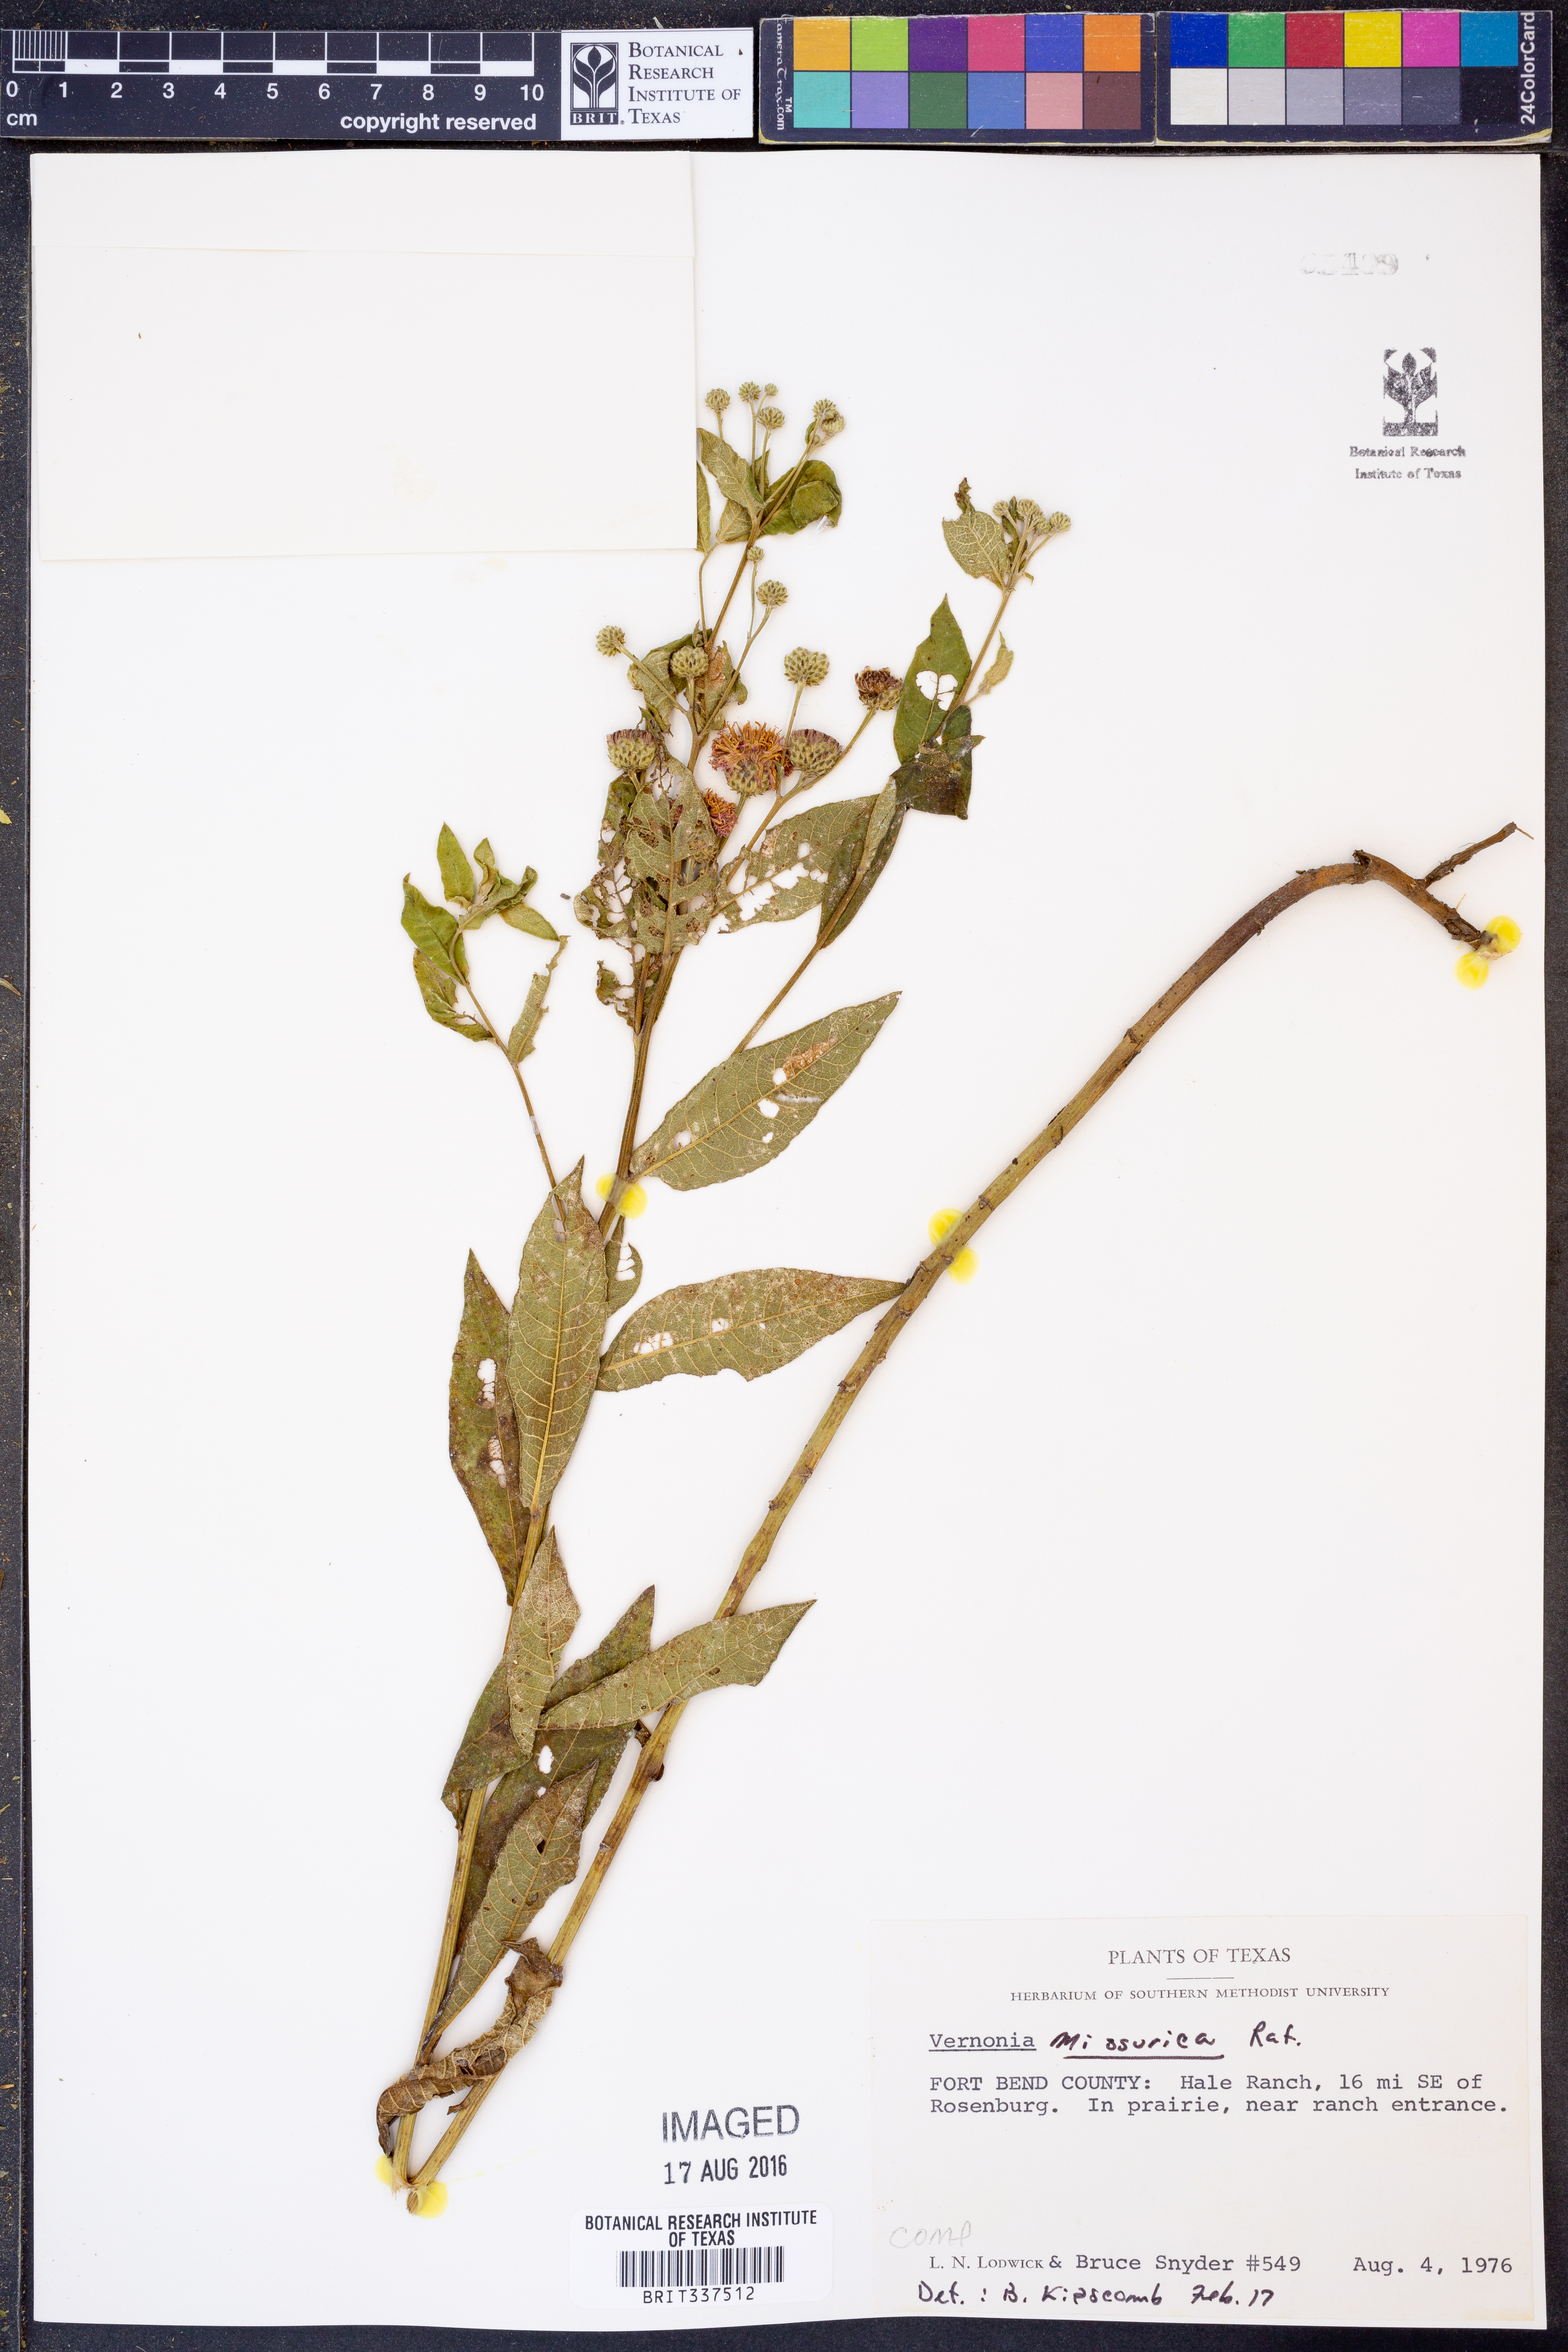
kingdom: Plantae
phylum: Tracheophyta
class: Magnoliopsida
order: Asterales
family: Asteraceae
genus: Vernonia
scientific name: Vernonia missurica
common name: Missouri ironweed
